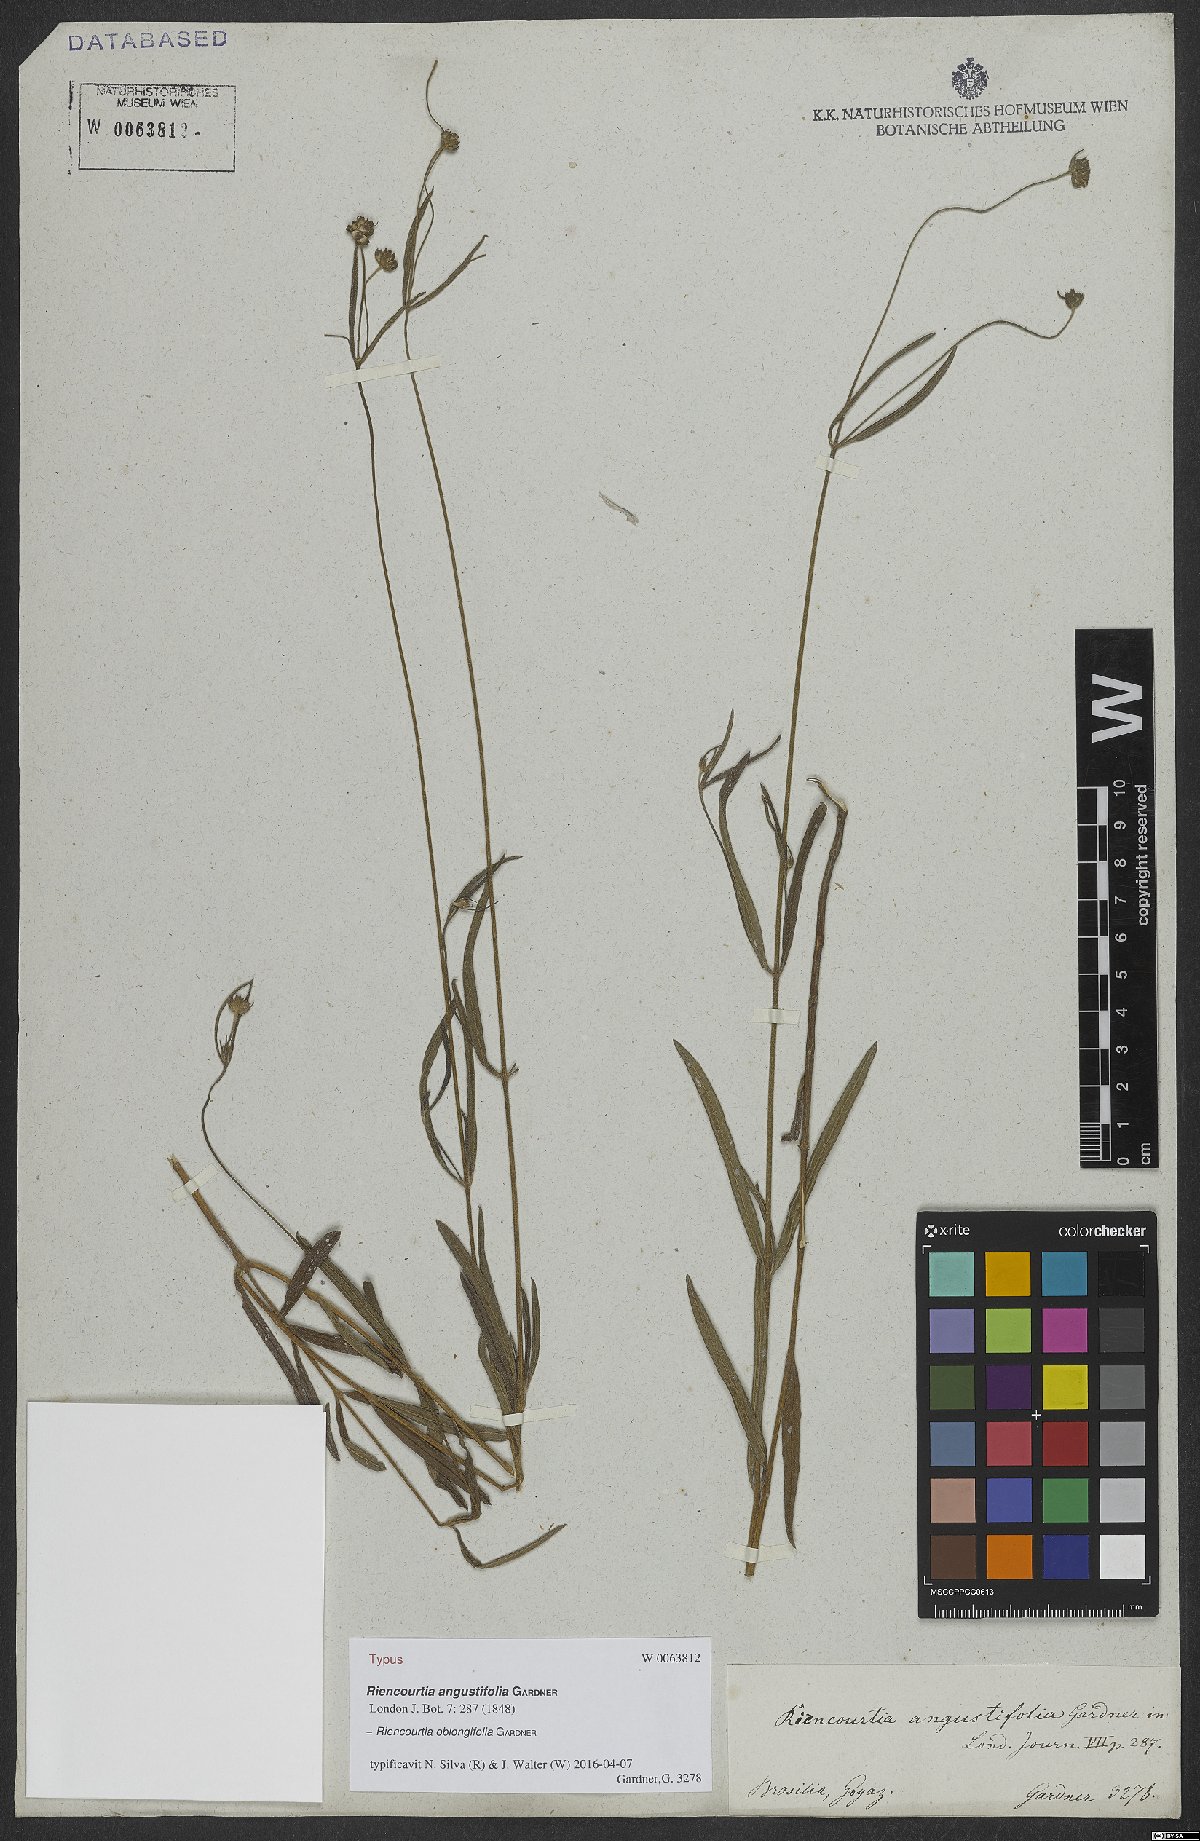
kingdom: Plantae
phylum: Tracheophyta
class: Magnoliopsida
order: Asterales
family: Asteraceae
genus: Riencourtia
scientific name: Riencourtia oblongifolia
